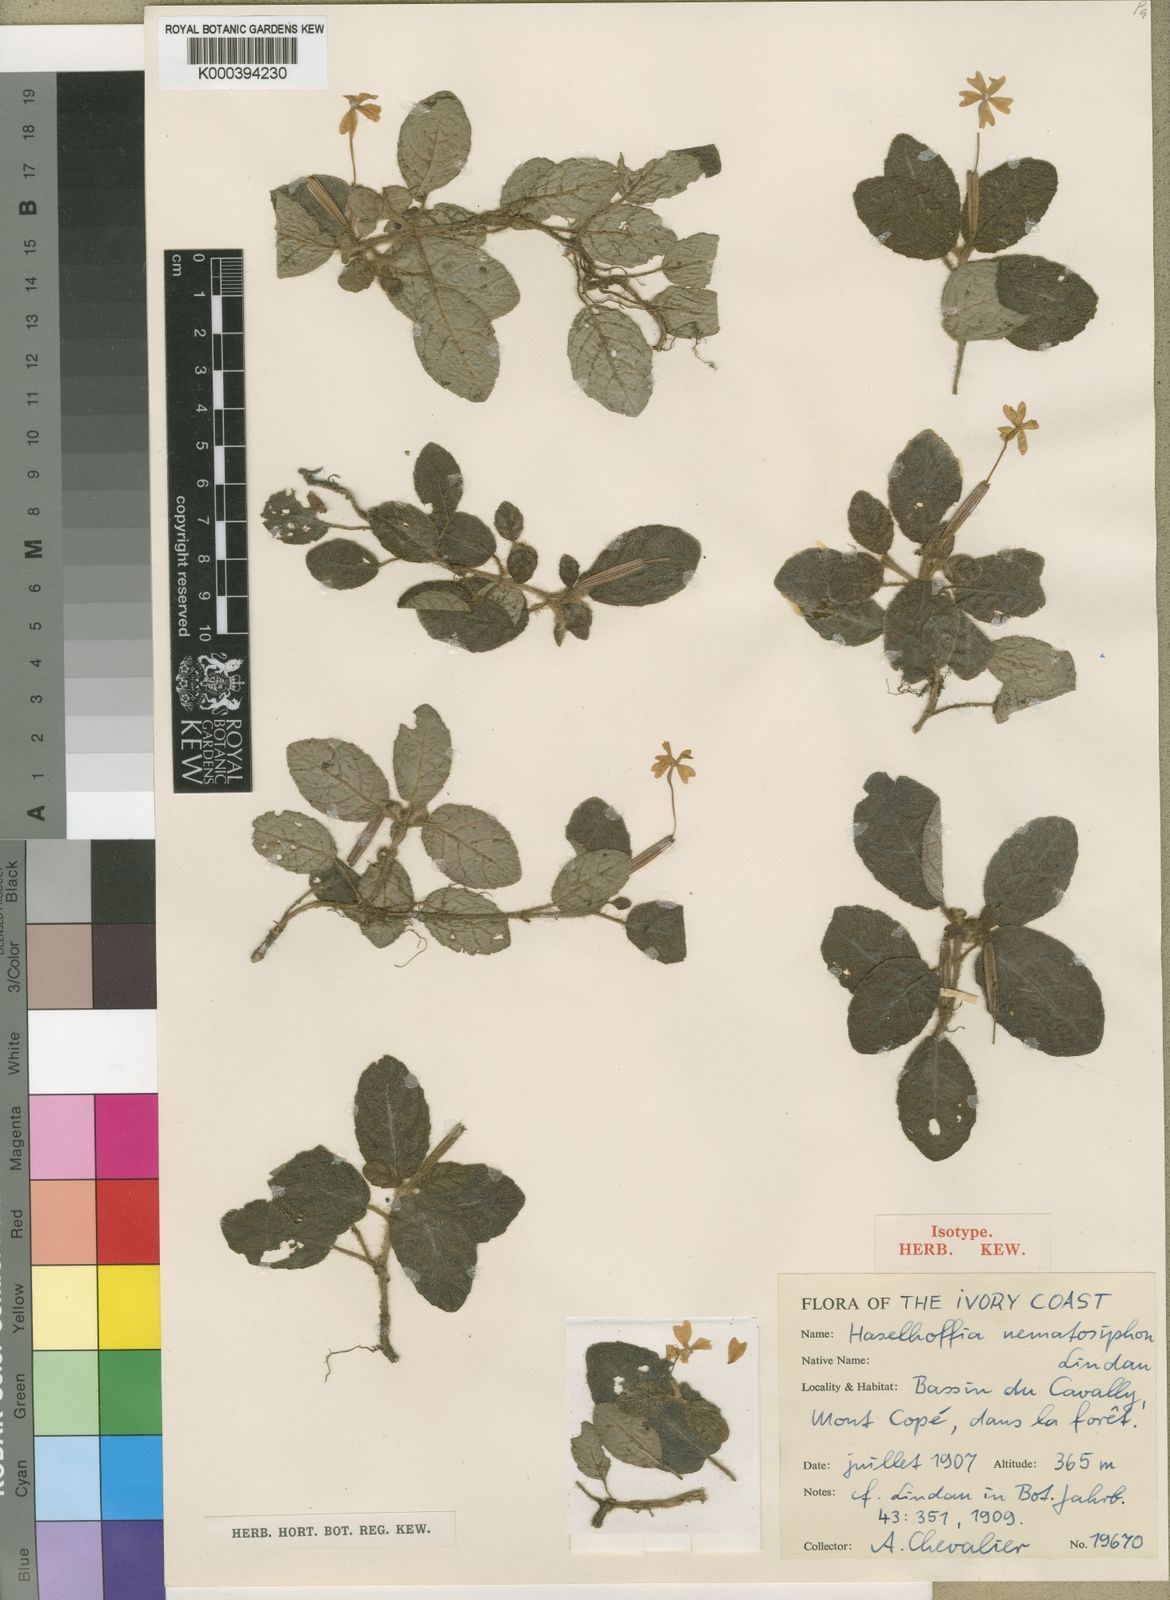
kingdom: Plantae
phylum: Tracheophyta
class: Magnoliopsida
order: Lamiales
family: Acanthaceae
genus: Physacanthus
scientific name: Physacanthus nematosiphon
